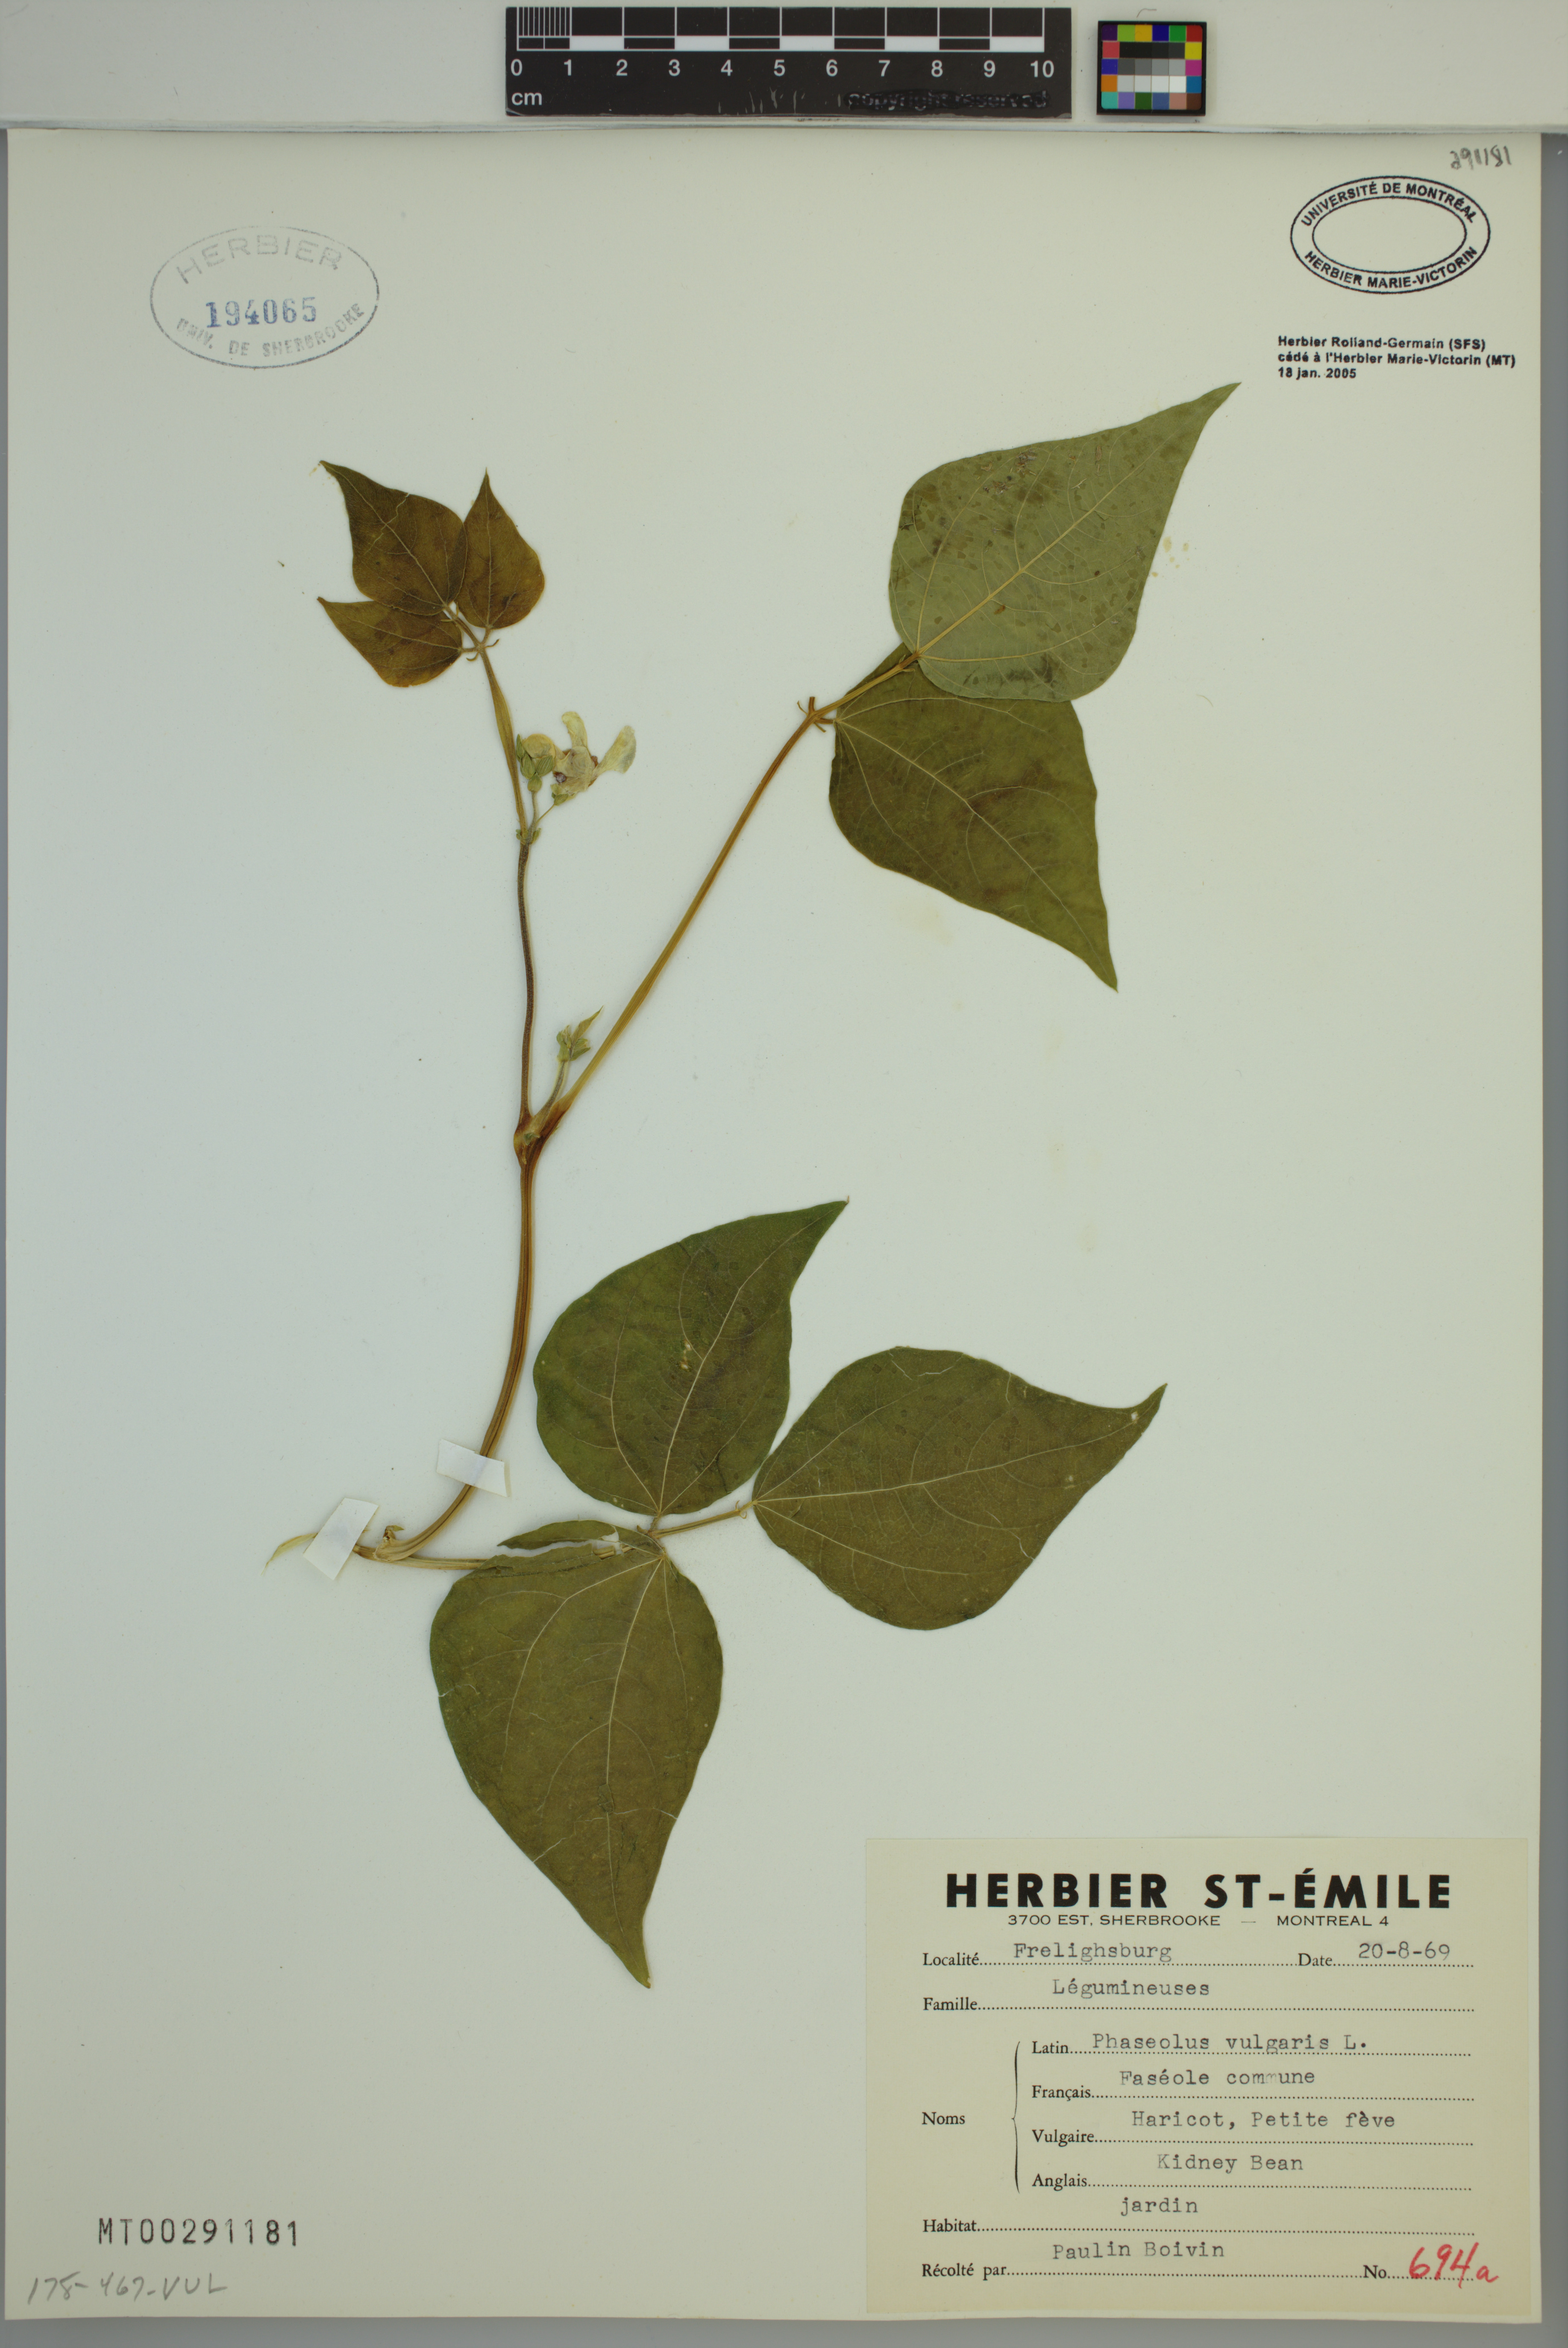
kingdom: Plantae
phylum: Tracheophyta
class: Magnoliopsida
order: Fabales
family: Fabaceae
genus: Phaseolus
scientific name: Phaseolus vulgaris
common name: Bean
